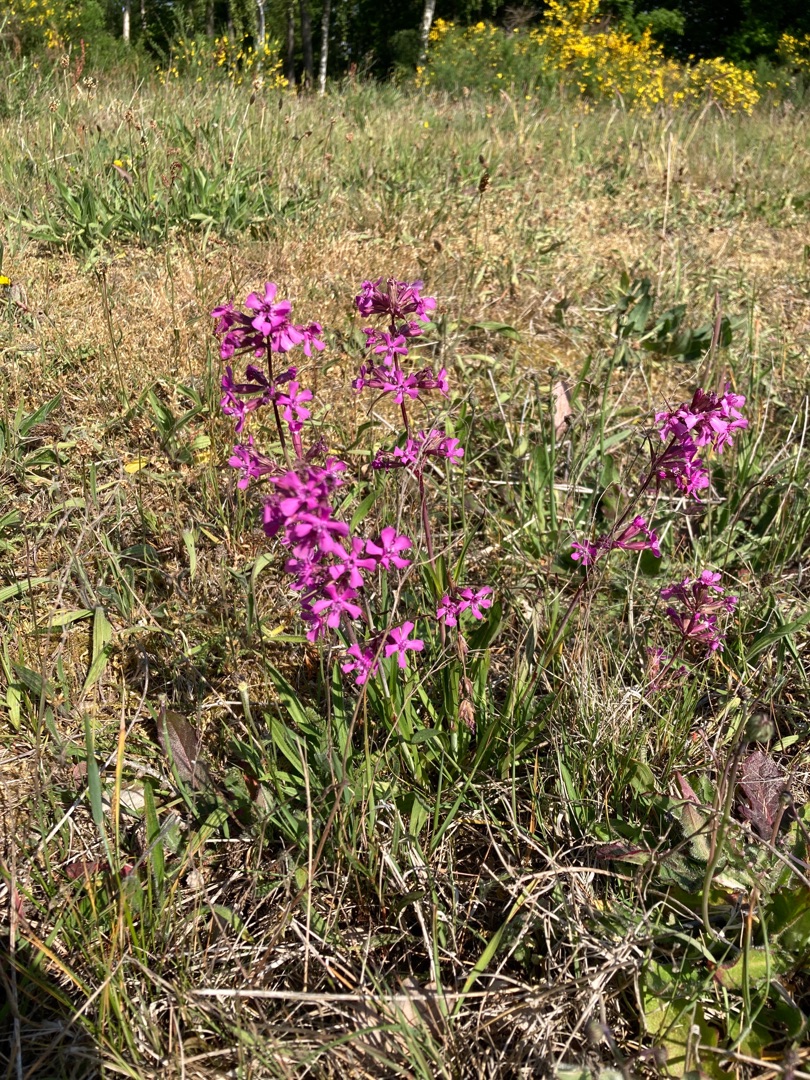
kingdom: Plantae
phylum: Tracheophyta
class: Magnoliopsida
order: Caryophyllales
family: Caryophyllaceae
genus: Viscaria
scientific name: Viscaria vulgaris
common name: Tjærenellike
